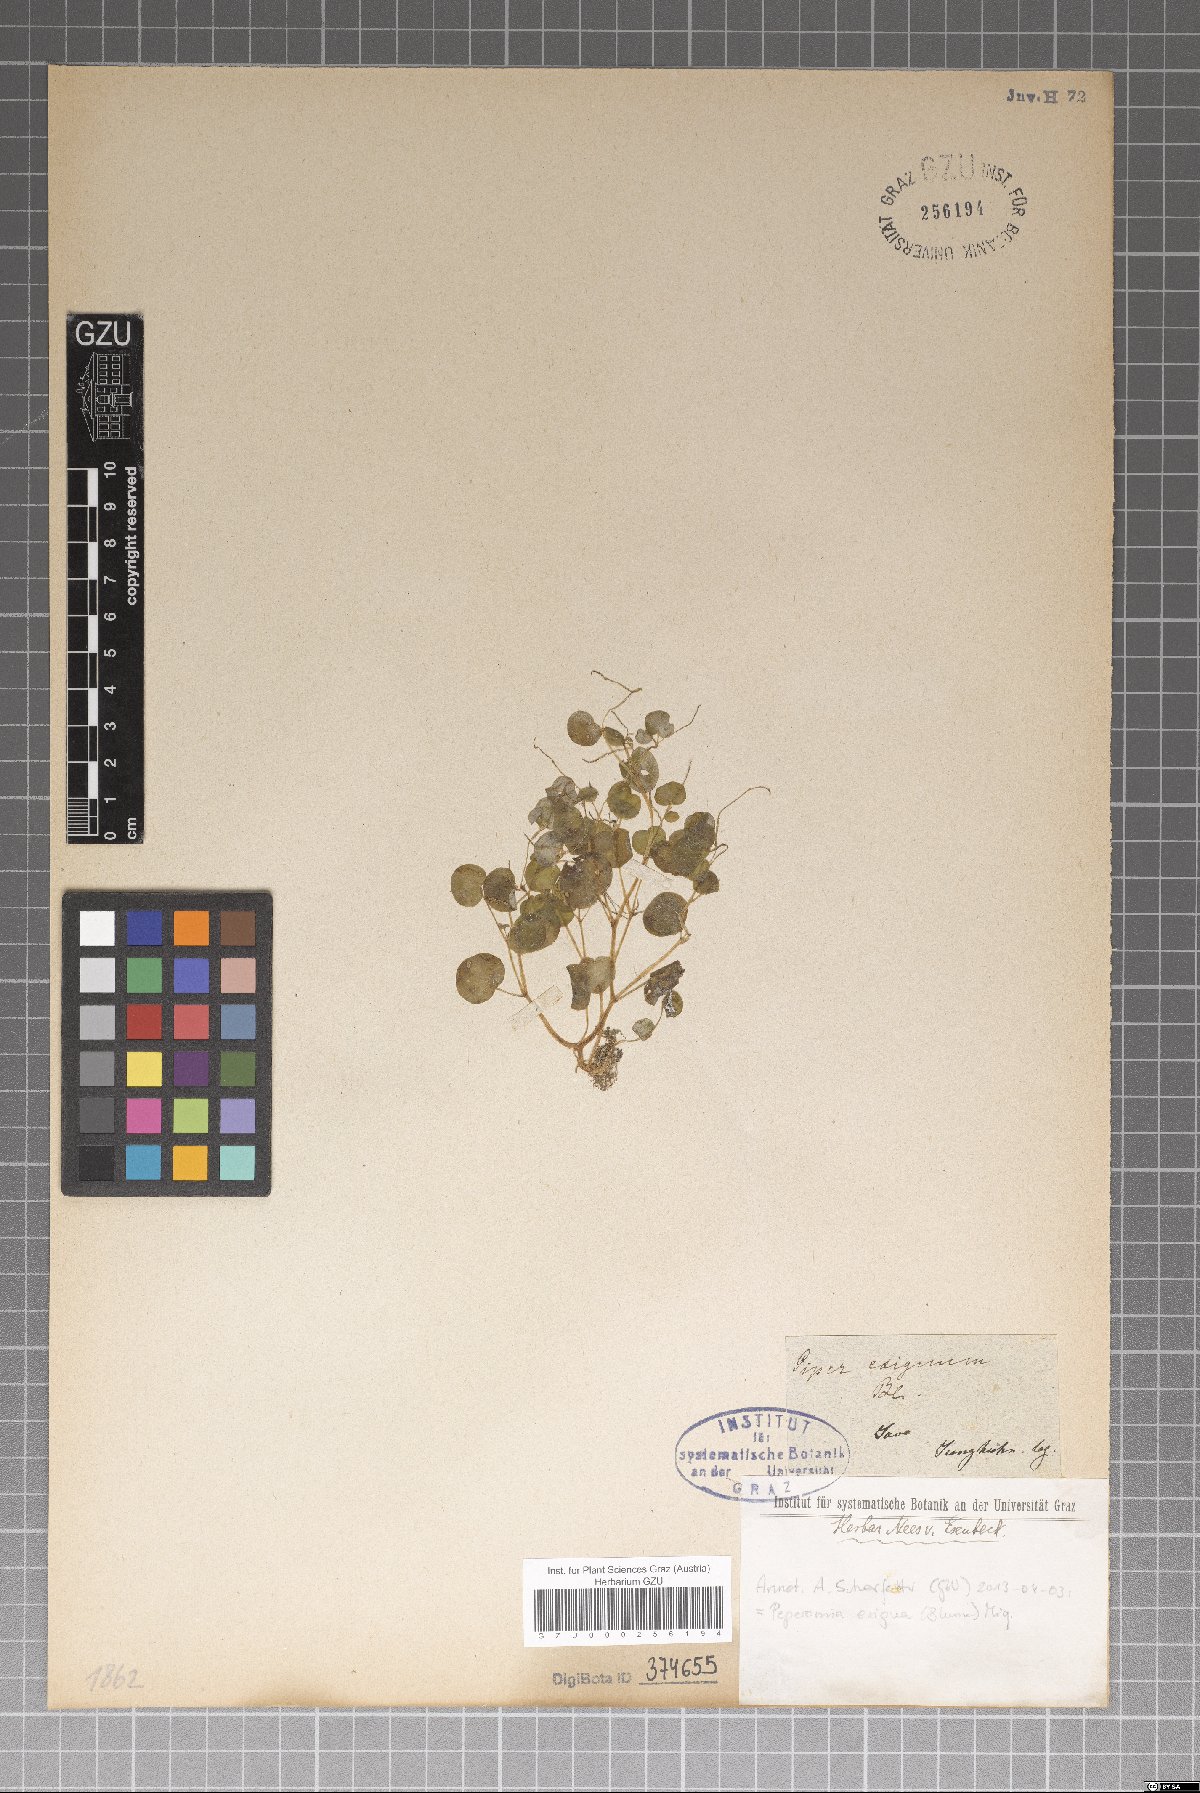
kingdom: Plantae
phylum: Tracheophyta
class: Magnoliopsida
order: Piperales
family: Piperaceae
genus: Peperomia
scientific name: Peperomia pellucida
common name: Man to man
